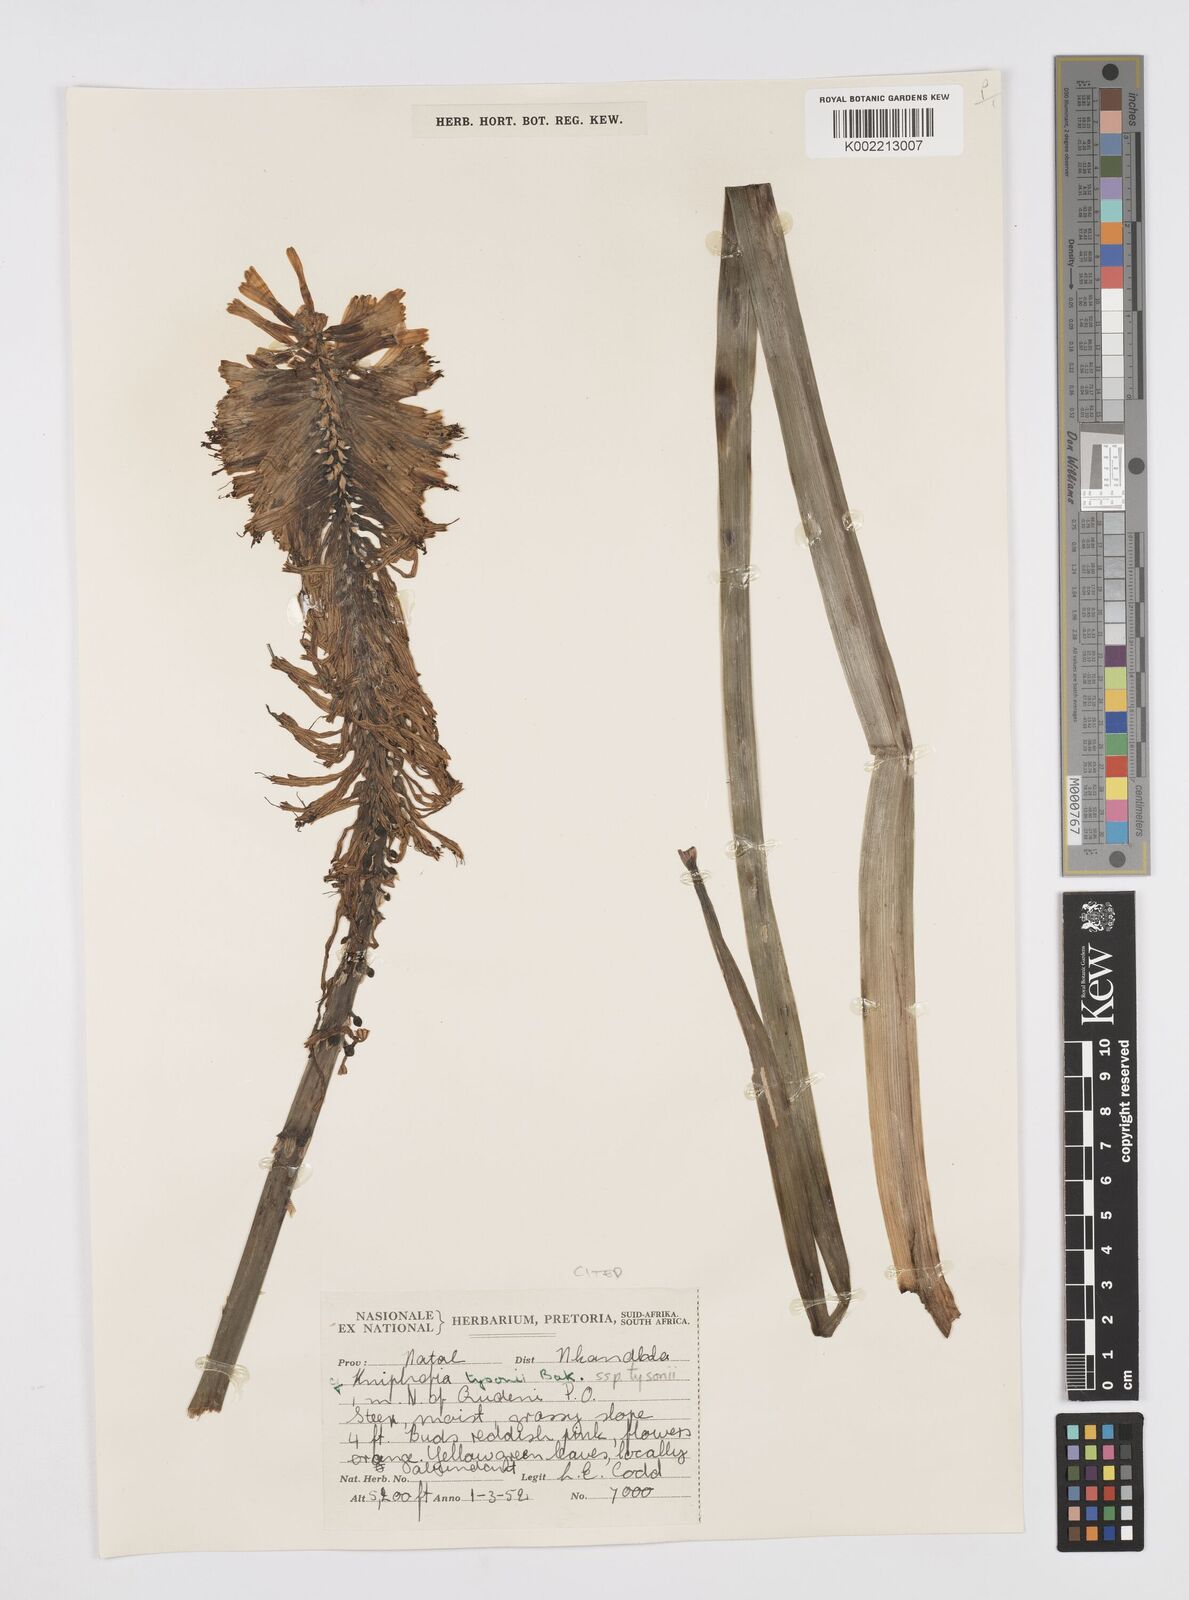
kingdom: Plantae
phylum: Tracheophyta
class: Liliopsida
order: Asparagales
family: Asphodelaceae
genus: Kniphofia
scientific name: Kniphofia tysonii
